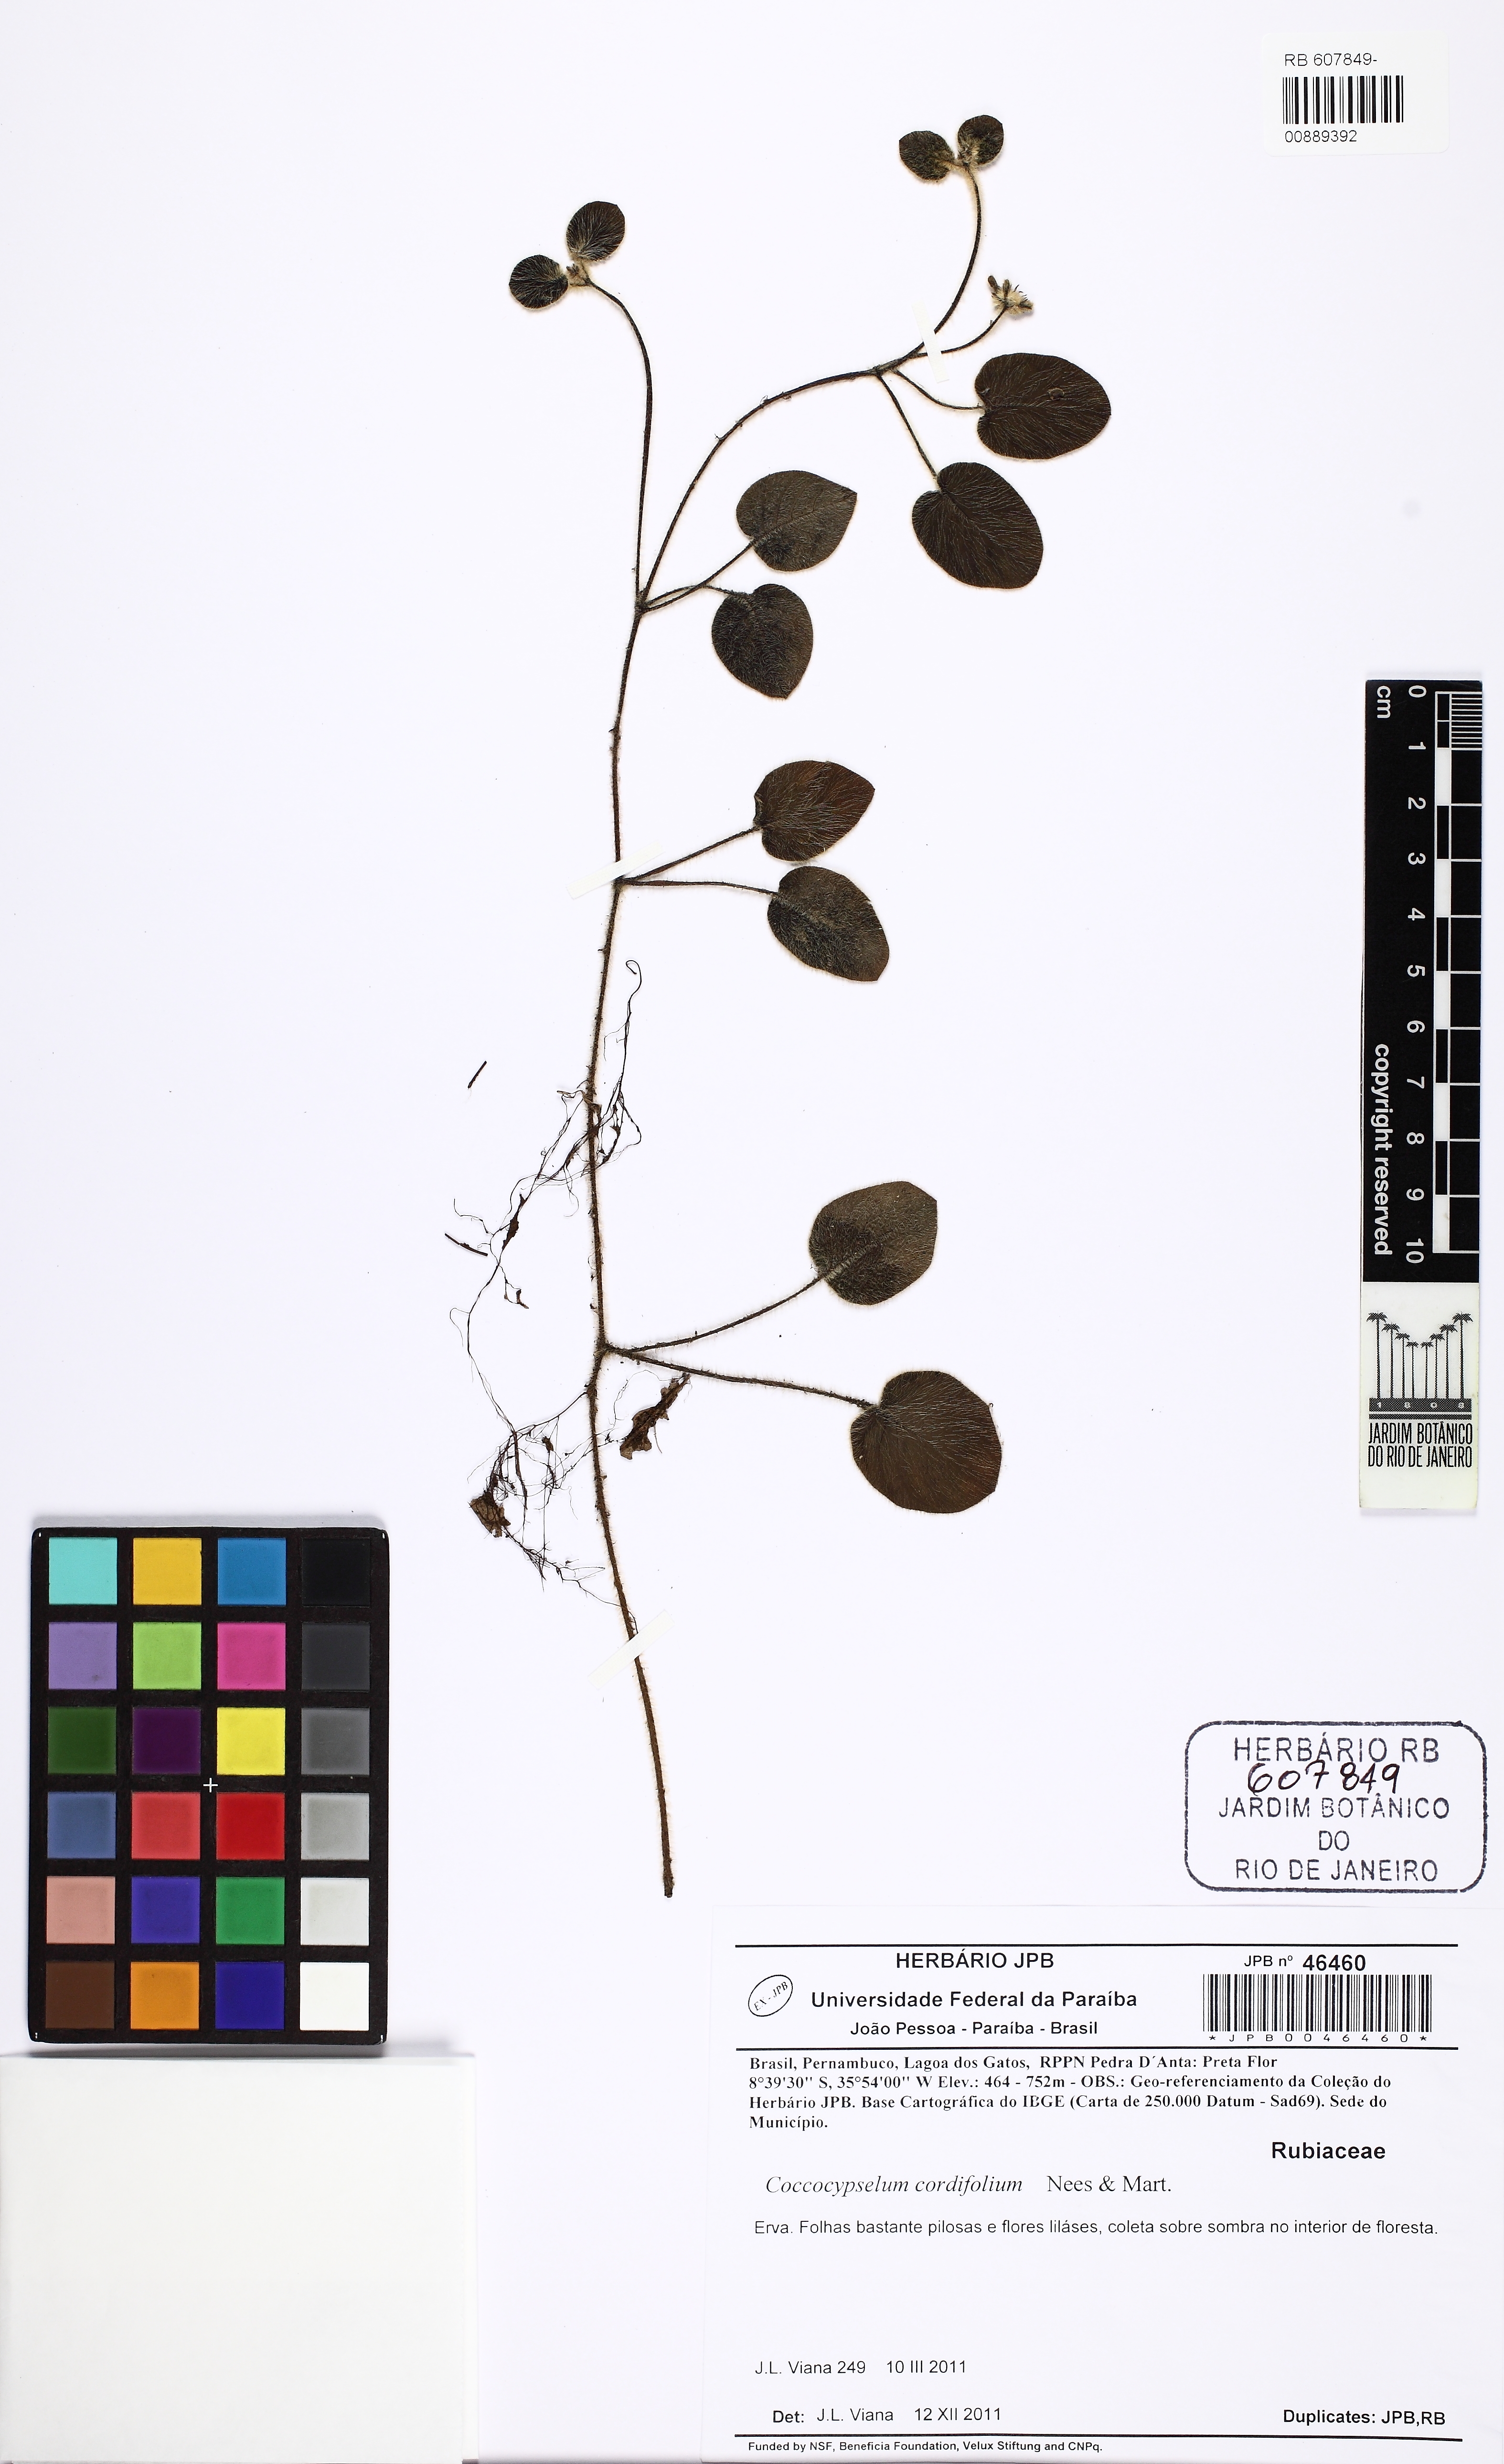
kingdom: Plantae
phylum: Tracheophyta
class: Magnoliopsida
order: Gentianales
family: Rubiaceae
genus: Coccocypselum
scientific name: Coccocypselum cordifolium
